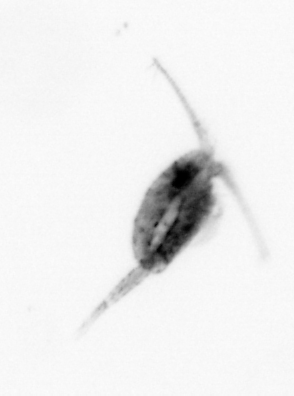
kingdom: Animalia
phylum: Arthropoda
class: Copepoda
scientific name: Copepoda
